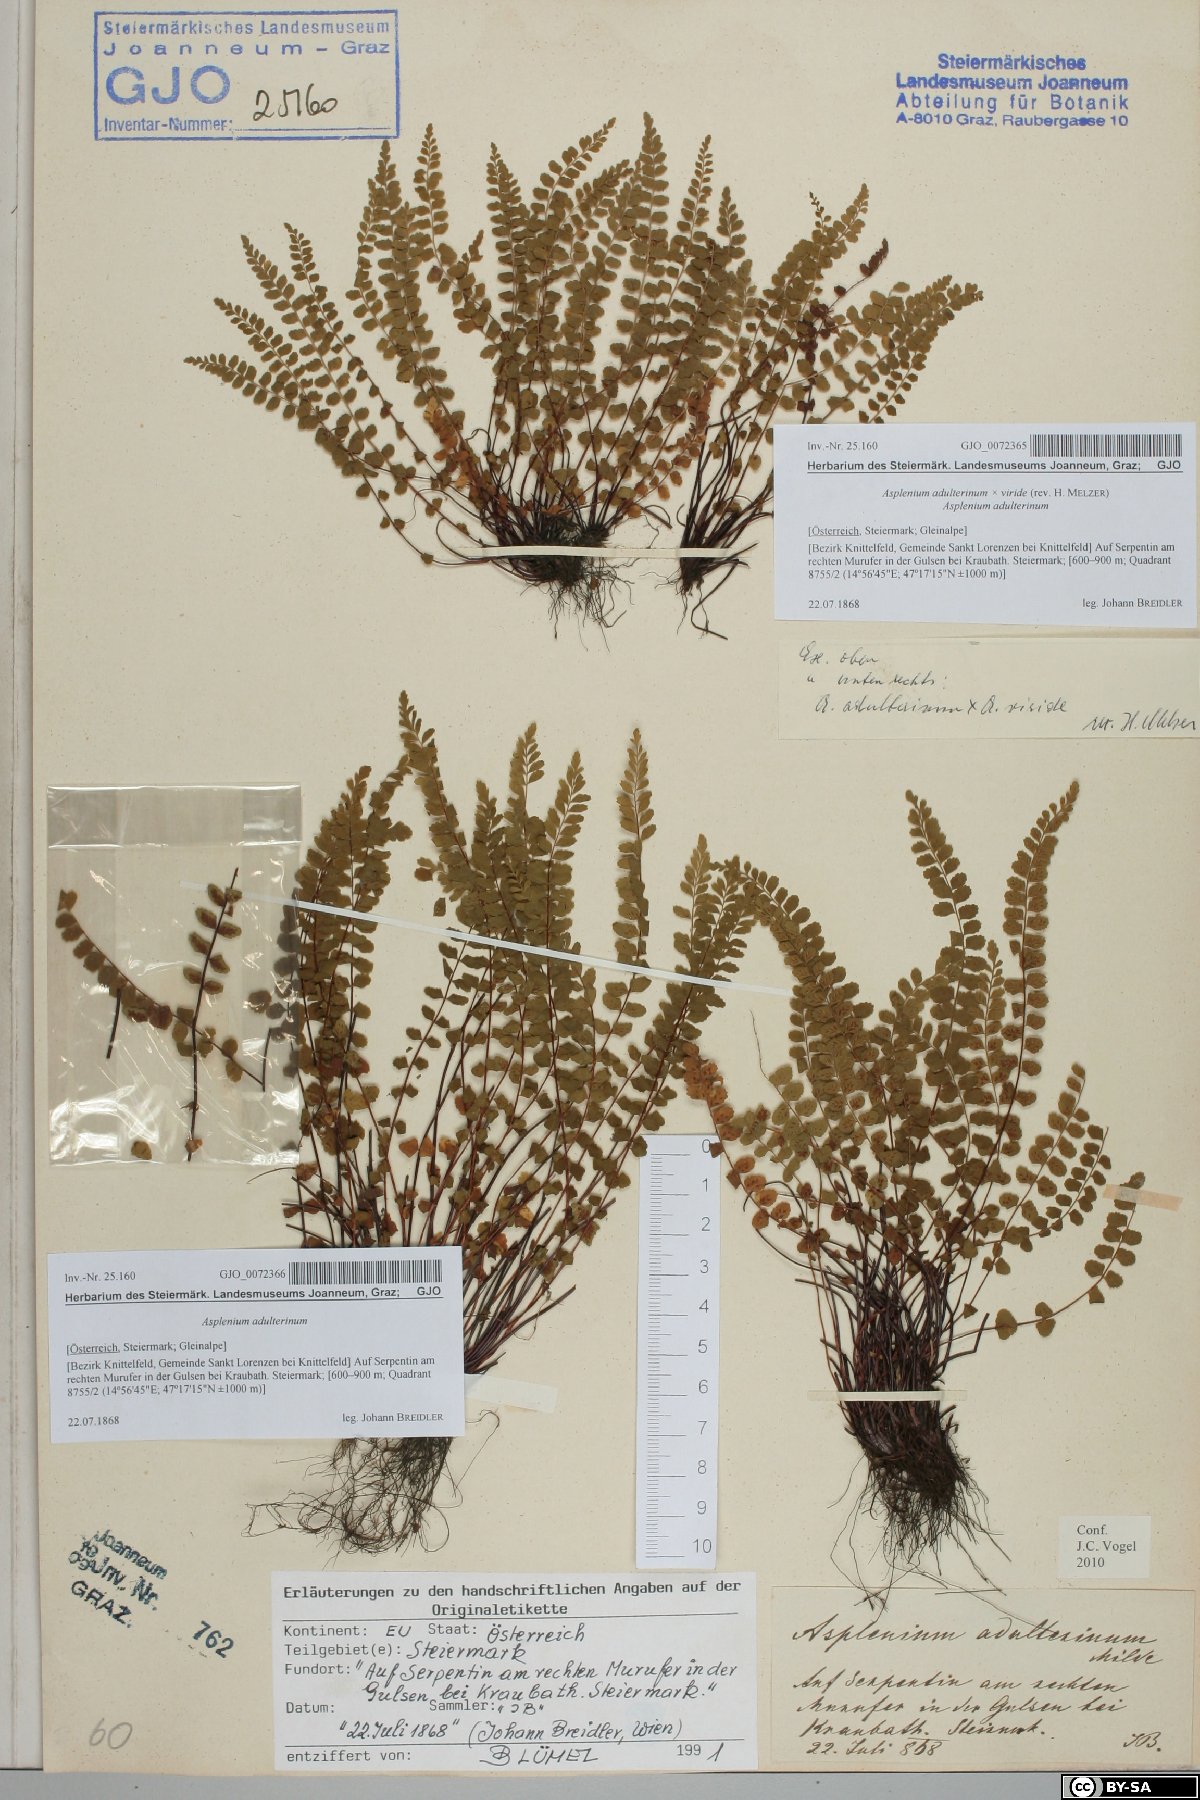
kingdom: Plantae
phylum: Tracheophyta
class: Polypodiopsida
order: Polypodiales
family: Aspleniaceae
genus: Asplenium
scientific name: Asplenium adulterinum
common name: Adulterated spleenwort
